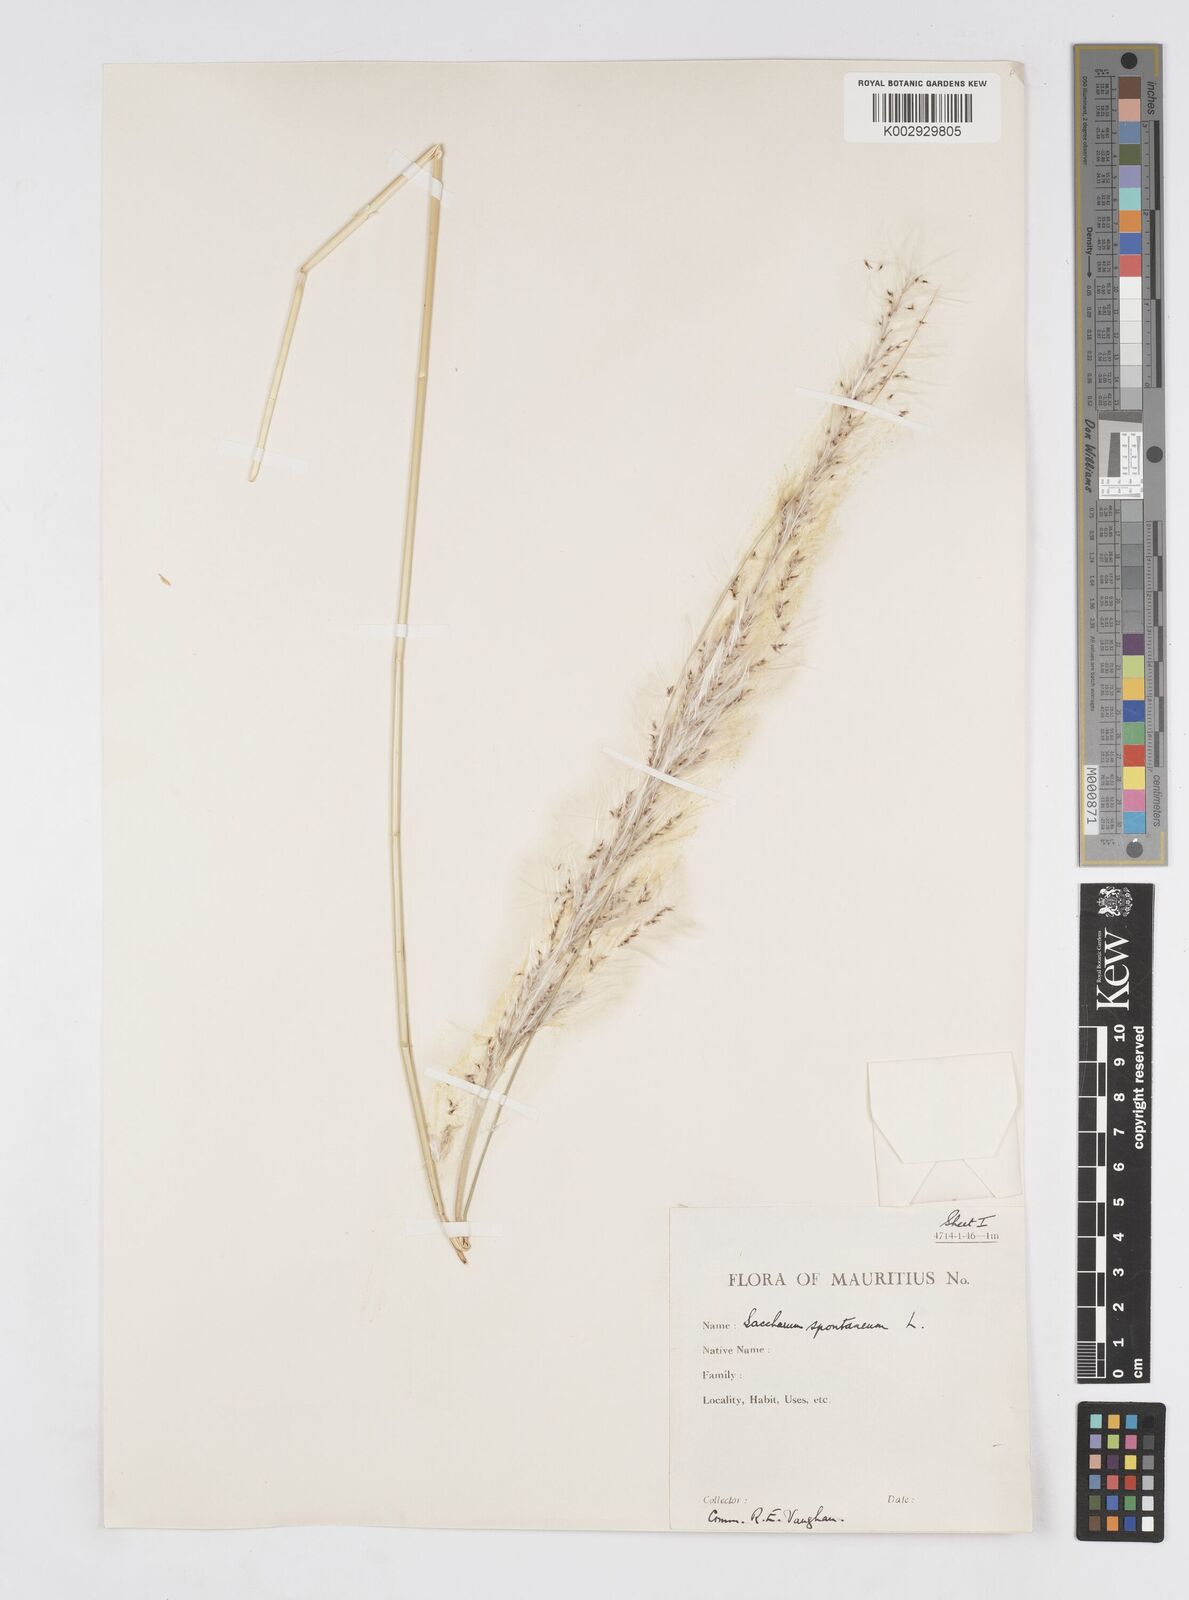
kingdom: Plantae
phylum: Tracheophyta
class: Liliopsida
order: Poales
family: Poaceae
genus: Saccharum
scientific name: Saccharum spontaneum
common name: Wild sugarcane
